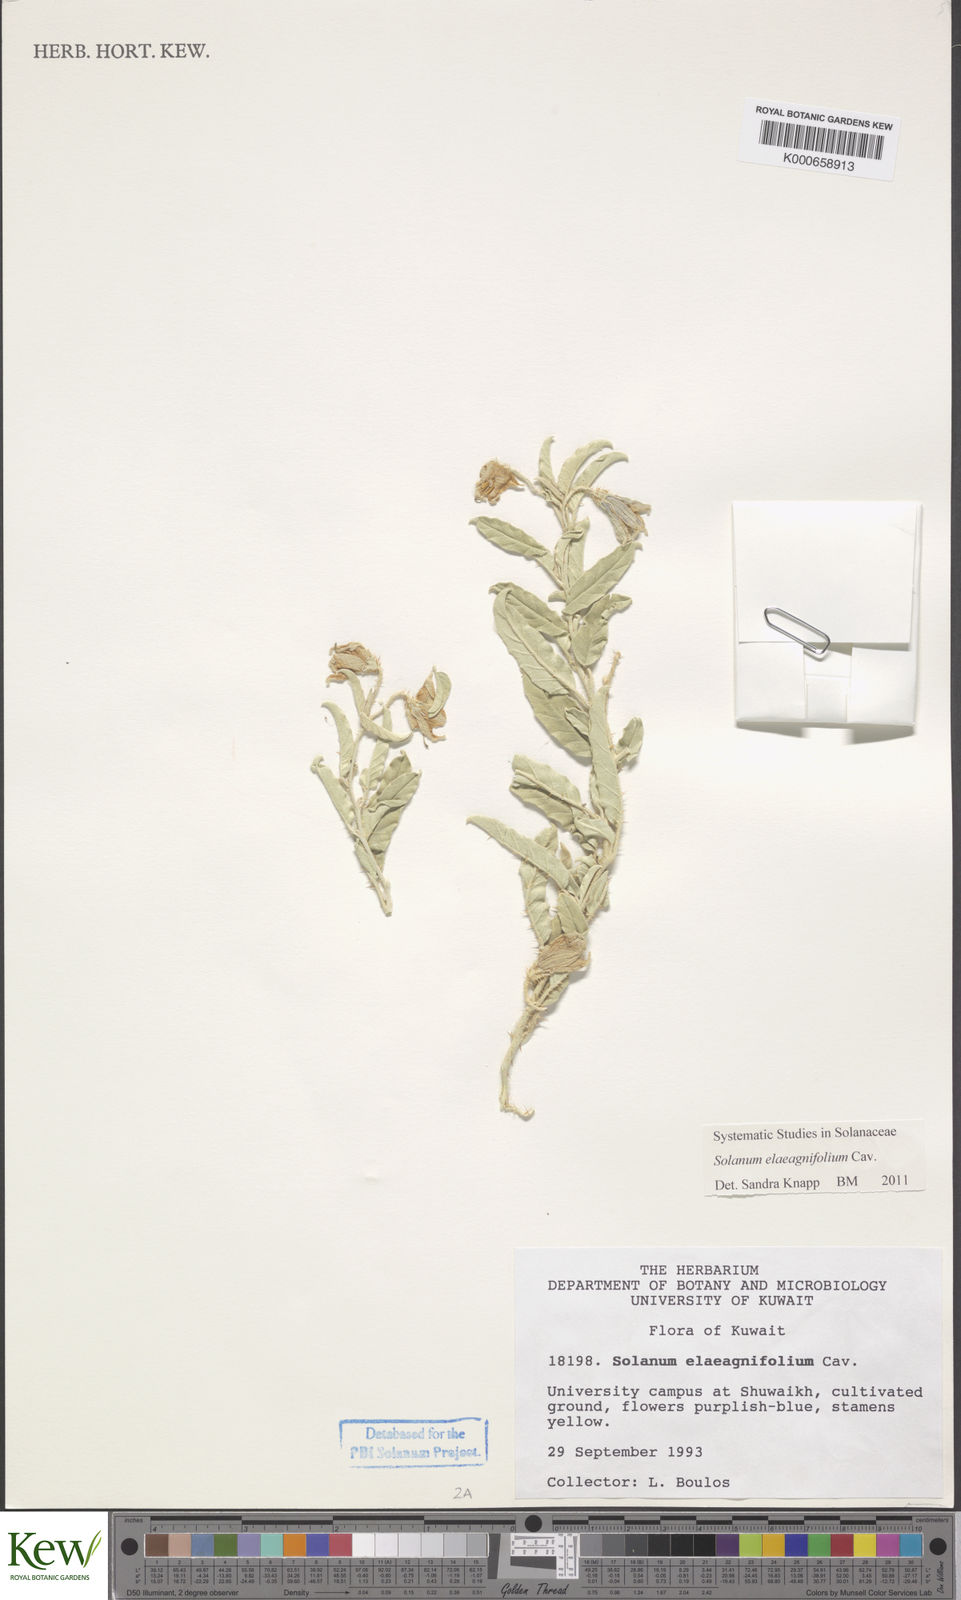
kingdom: Plantae
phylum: Tracheophyta
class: Magnoliopsida
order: Solanales
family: Solanaceae
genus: Solanum
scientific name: Solanum elaeagnifolium
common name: Silverleaf nightshade
